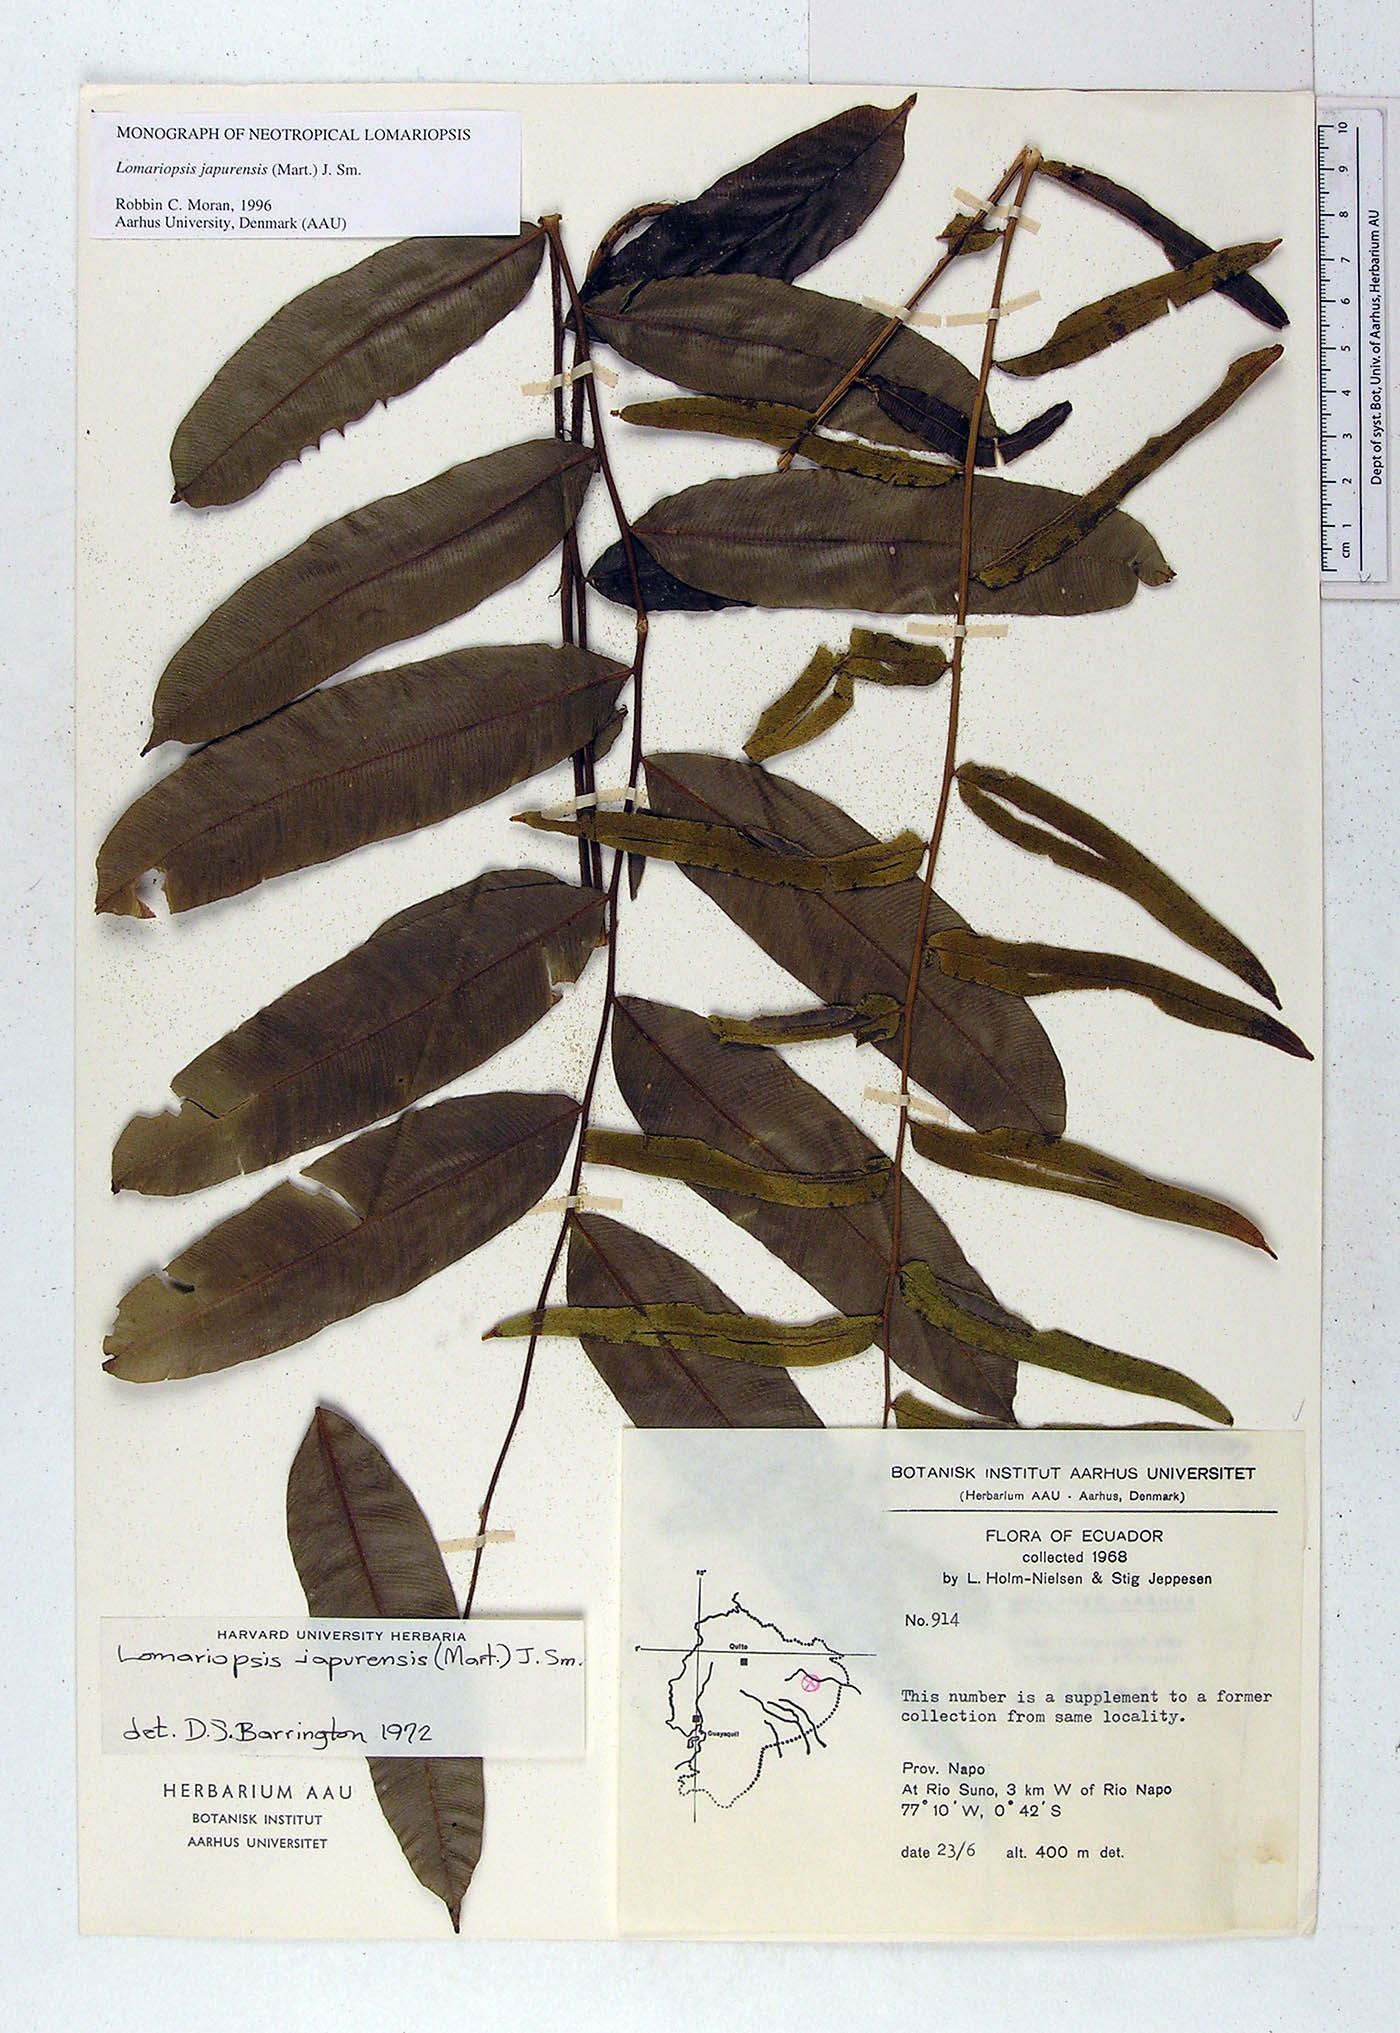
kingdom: Plantae
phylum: Tracheophyta
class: Polypodiopsida
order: Polypodiales
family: Polypodiaceae
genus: Pecluma
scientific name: Pecluma pectinata
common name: Msasa fern
